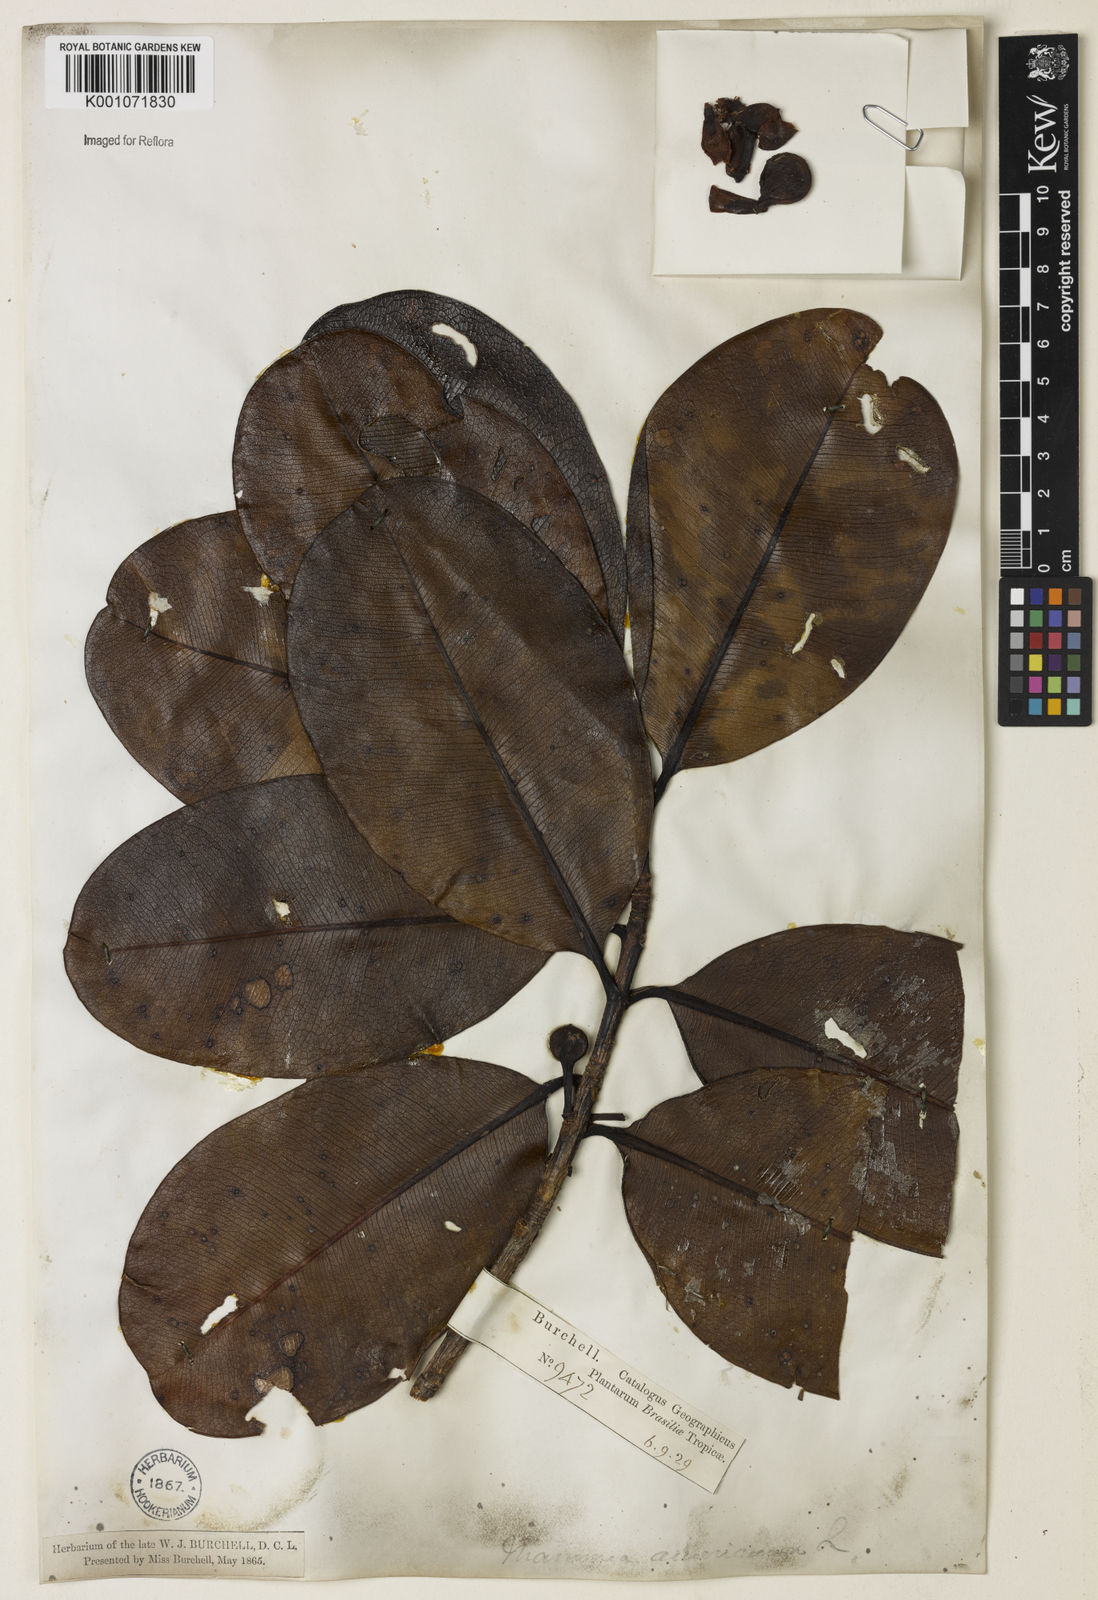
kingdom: Plantae
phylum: Tracheophyta
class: Magnoliopsida
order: Malpighiales
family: Calophyllaceae
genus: Mammea
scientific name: Mammea americana
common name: Mamey
